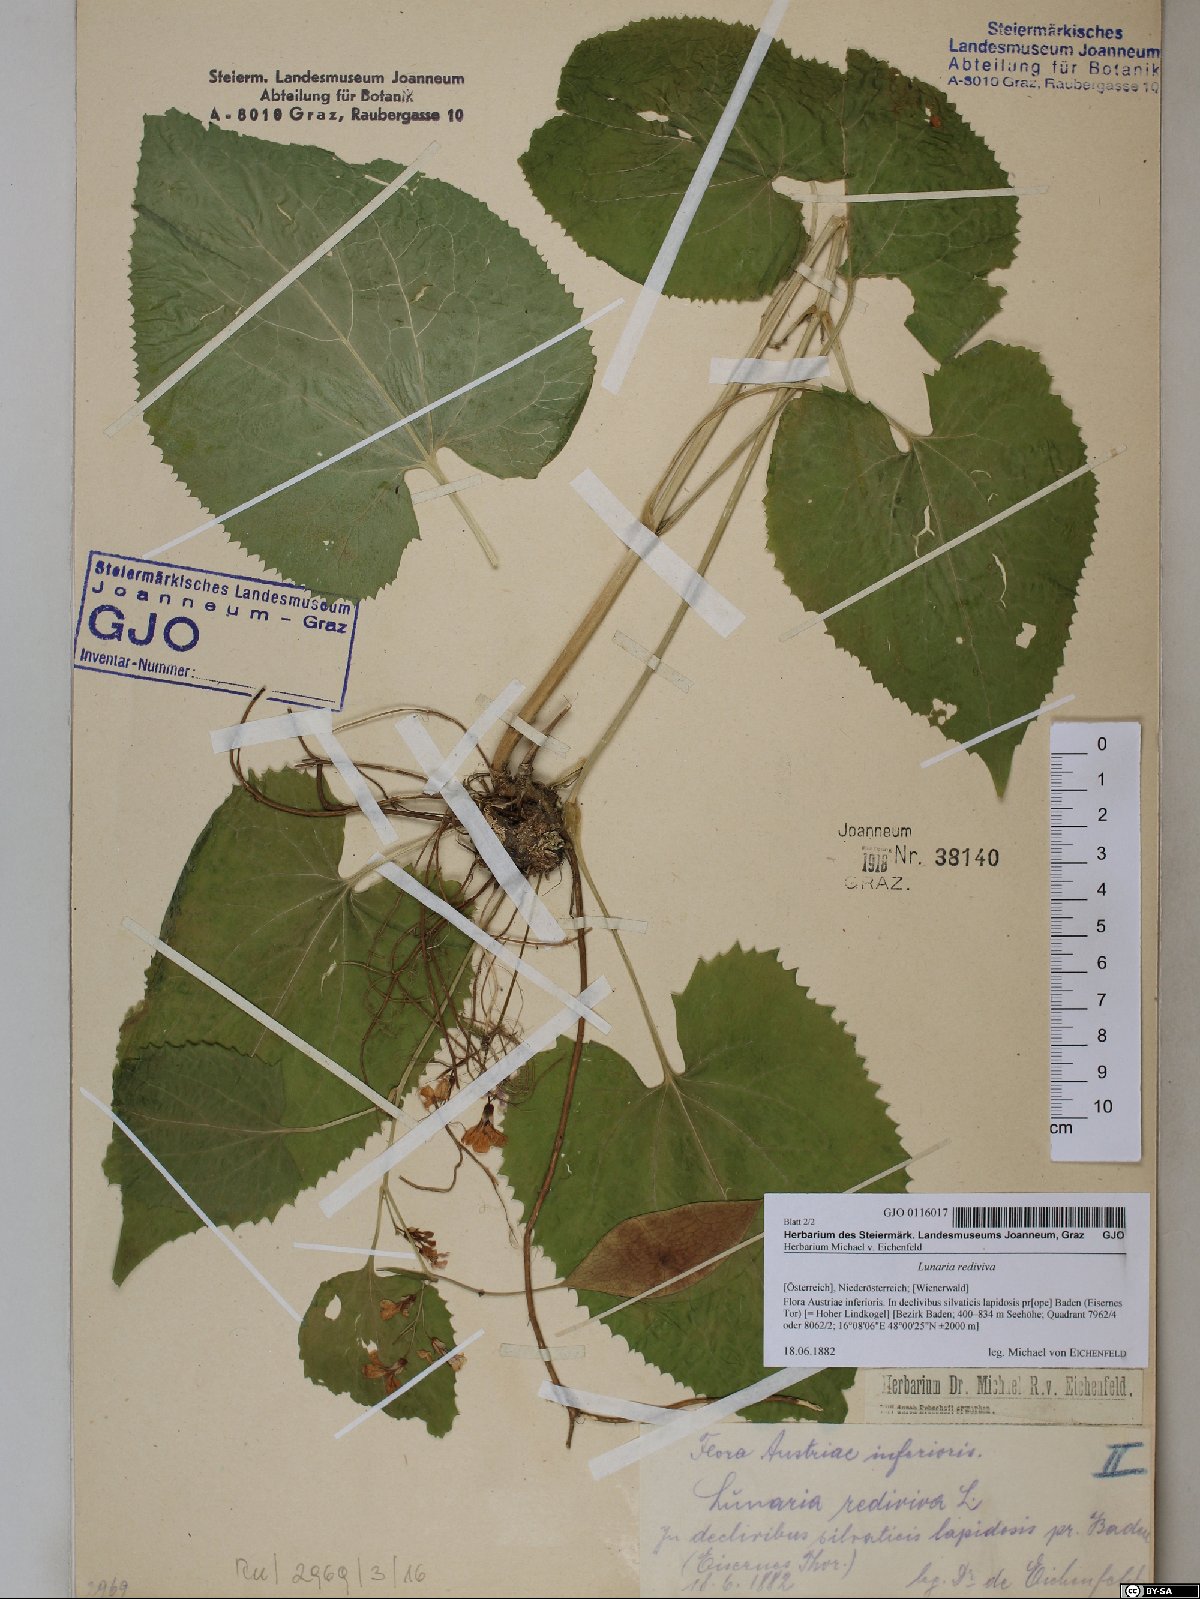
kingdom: Plantae
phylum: Tracheophyta
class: Magnoliopsida
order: Brassicales
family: Brassicaceae
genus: Lunaria
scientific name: Lunaria rediviva
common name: Perennial honesty
